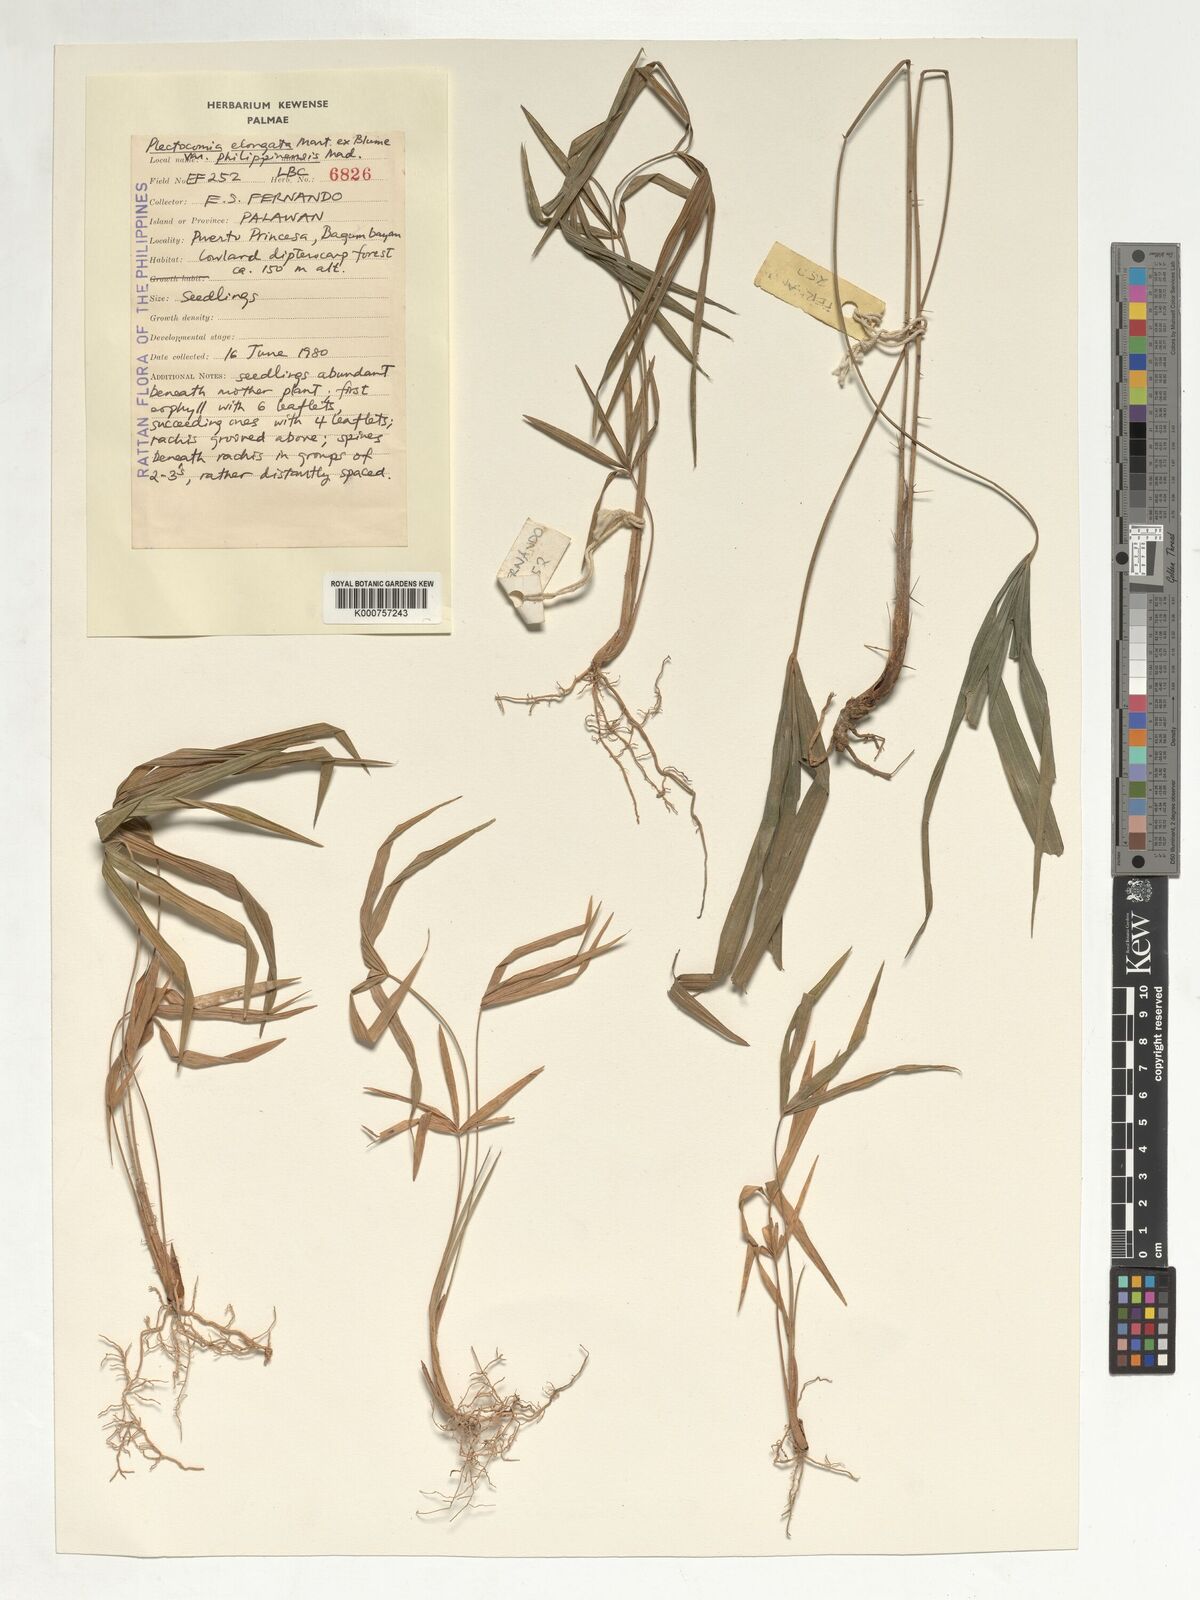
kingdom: Plantae
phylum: Tracheophyta
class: Liliopsida
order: Arecales
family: Arecaceae
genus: Plectocomia
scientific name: Plectocomia elongata
